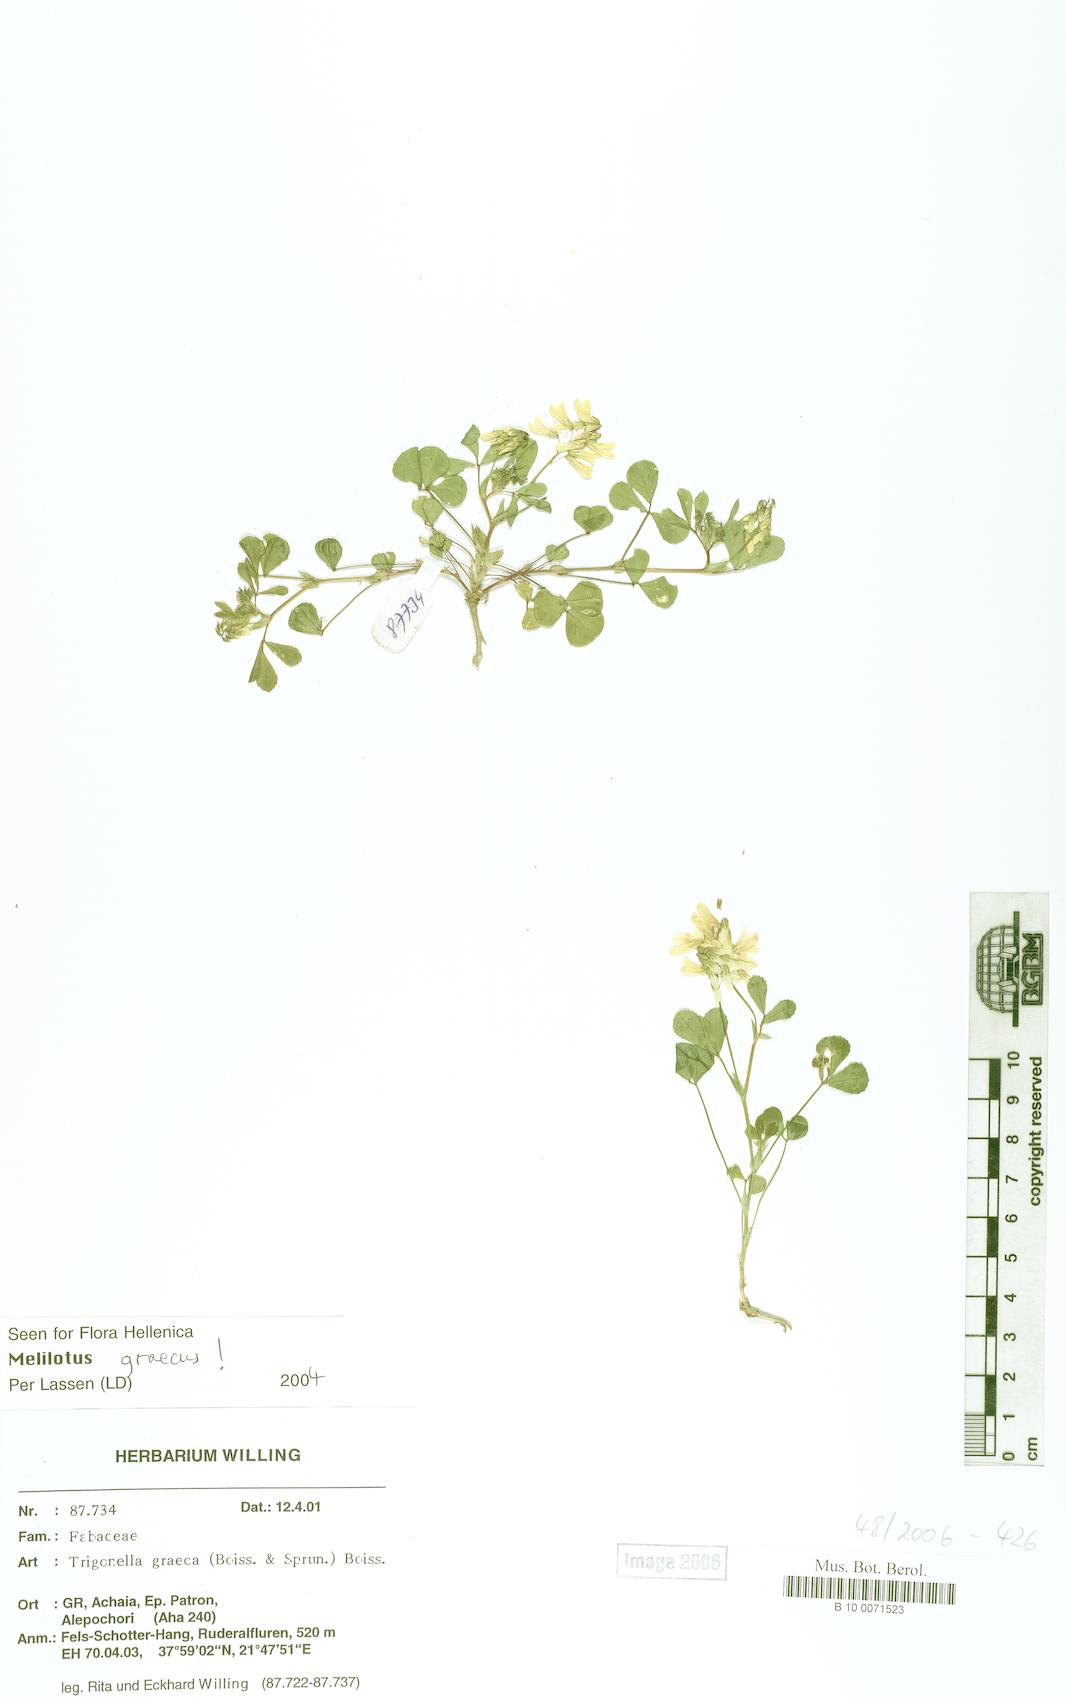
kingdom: Plantae
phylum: Tracheophyta
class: Magnoliopsida
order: Fabales
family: Fabaceae
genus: Trigonella
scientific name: Trigonella graeca
